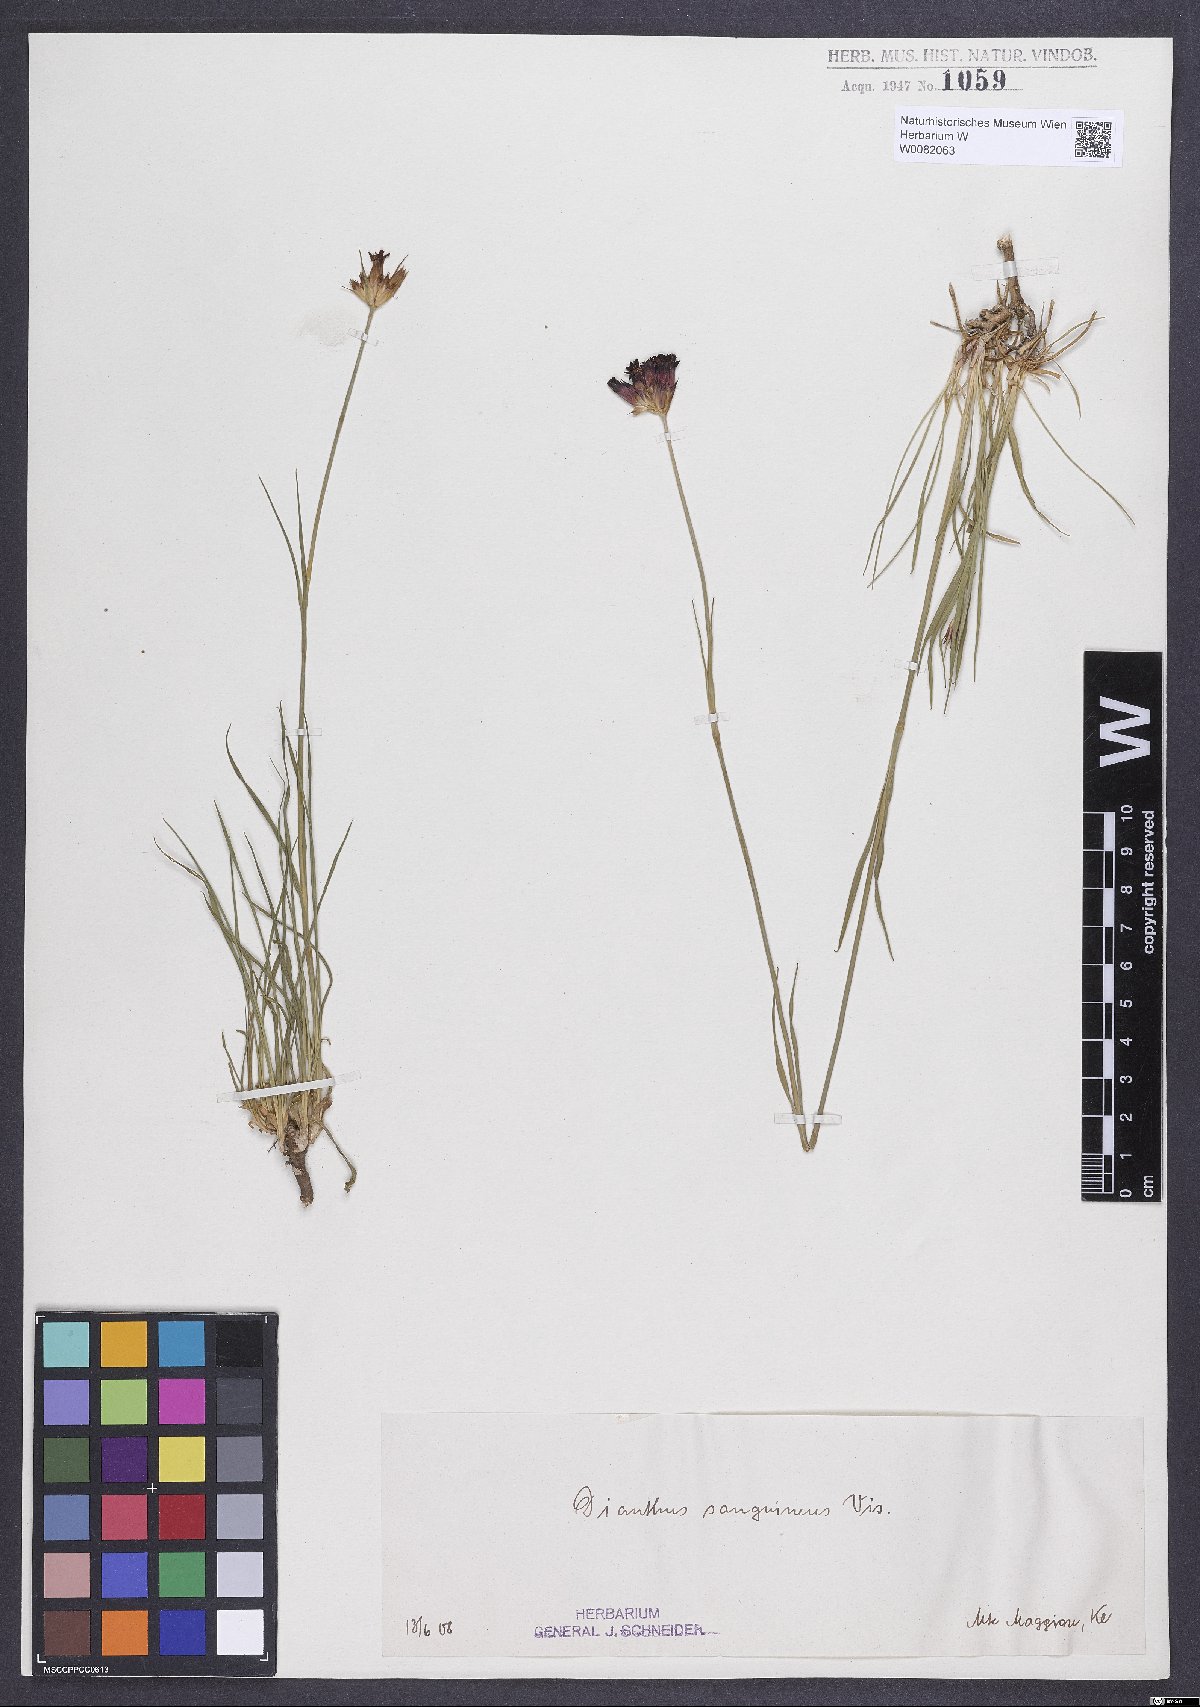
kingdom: Plantae
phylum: Tracheophyta
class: Magnoliopsida
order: Caryophyllales
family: Caryophyllaceae
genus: Dianthus
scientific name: Dianthus carthusianorum
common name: Carthusian pink
